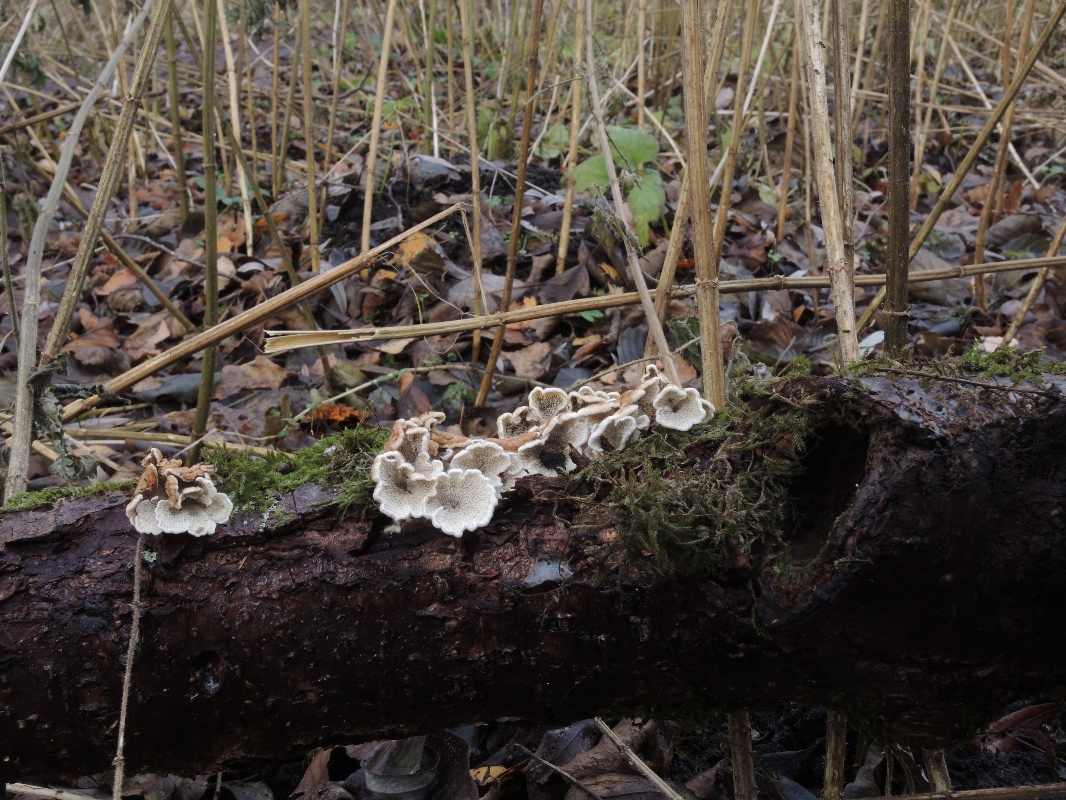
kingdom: Fungi
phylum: Basidiomycota
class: Agaricomycetes
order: Amylocorticiales
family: Amylocorticiaceae
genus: Plicaturopsis
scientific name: Plicaturopsis crispa
